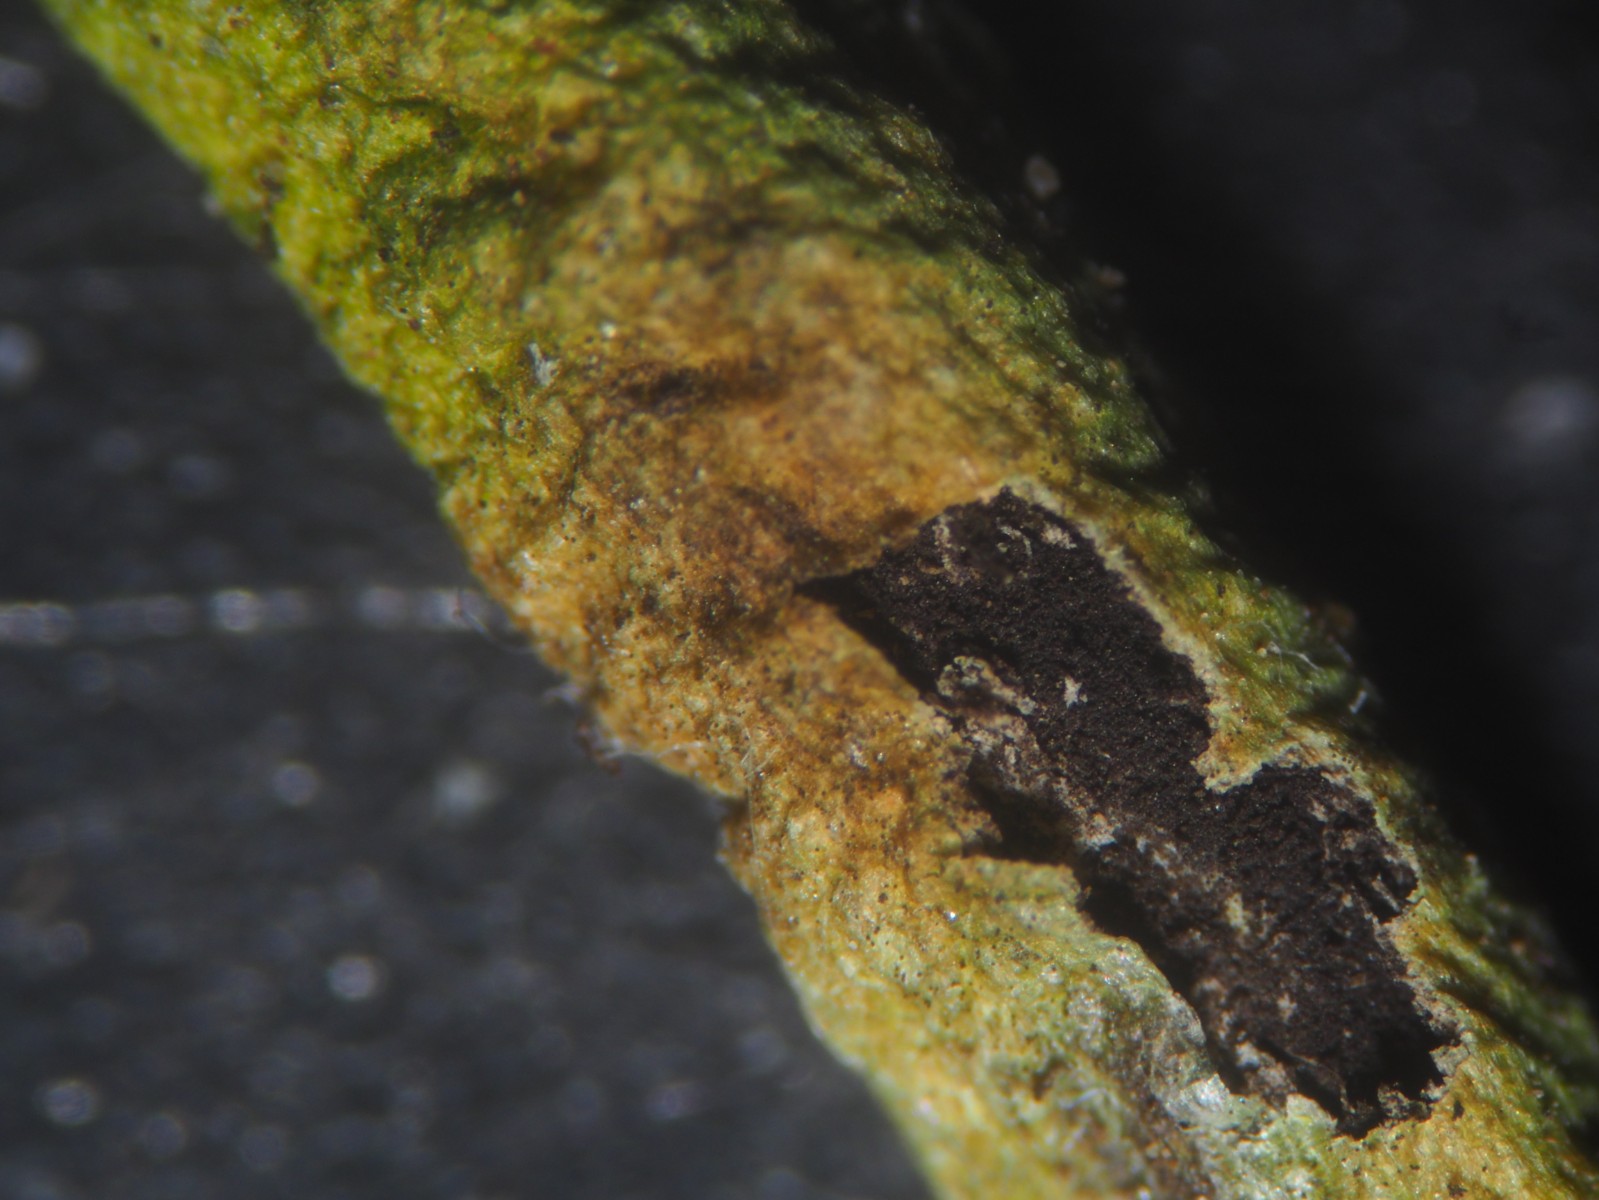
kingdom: Fungi
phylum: Basidiomycota
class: Ustilaginomycetes
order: Urocystidales
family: Urocystidaceae
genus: Urocystis
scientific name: Urocystis eranthidis
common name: erantis-brand
